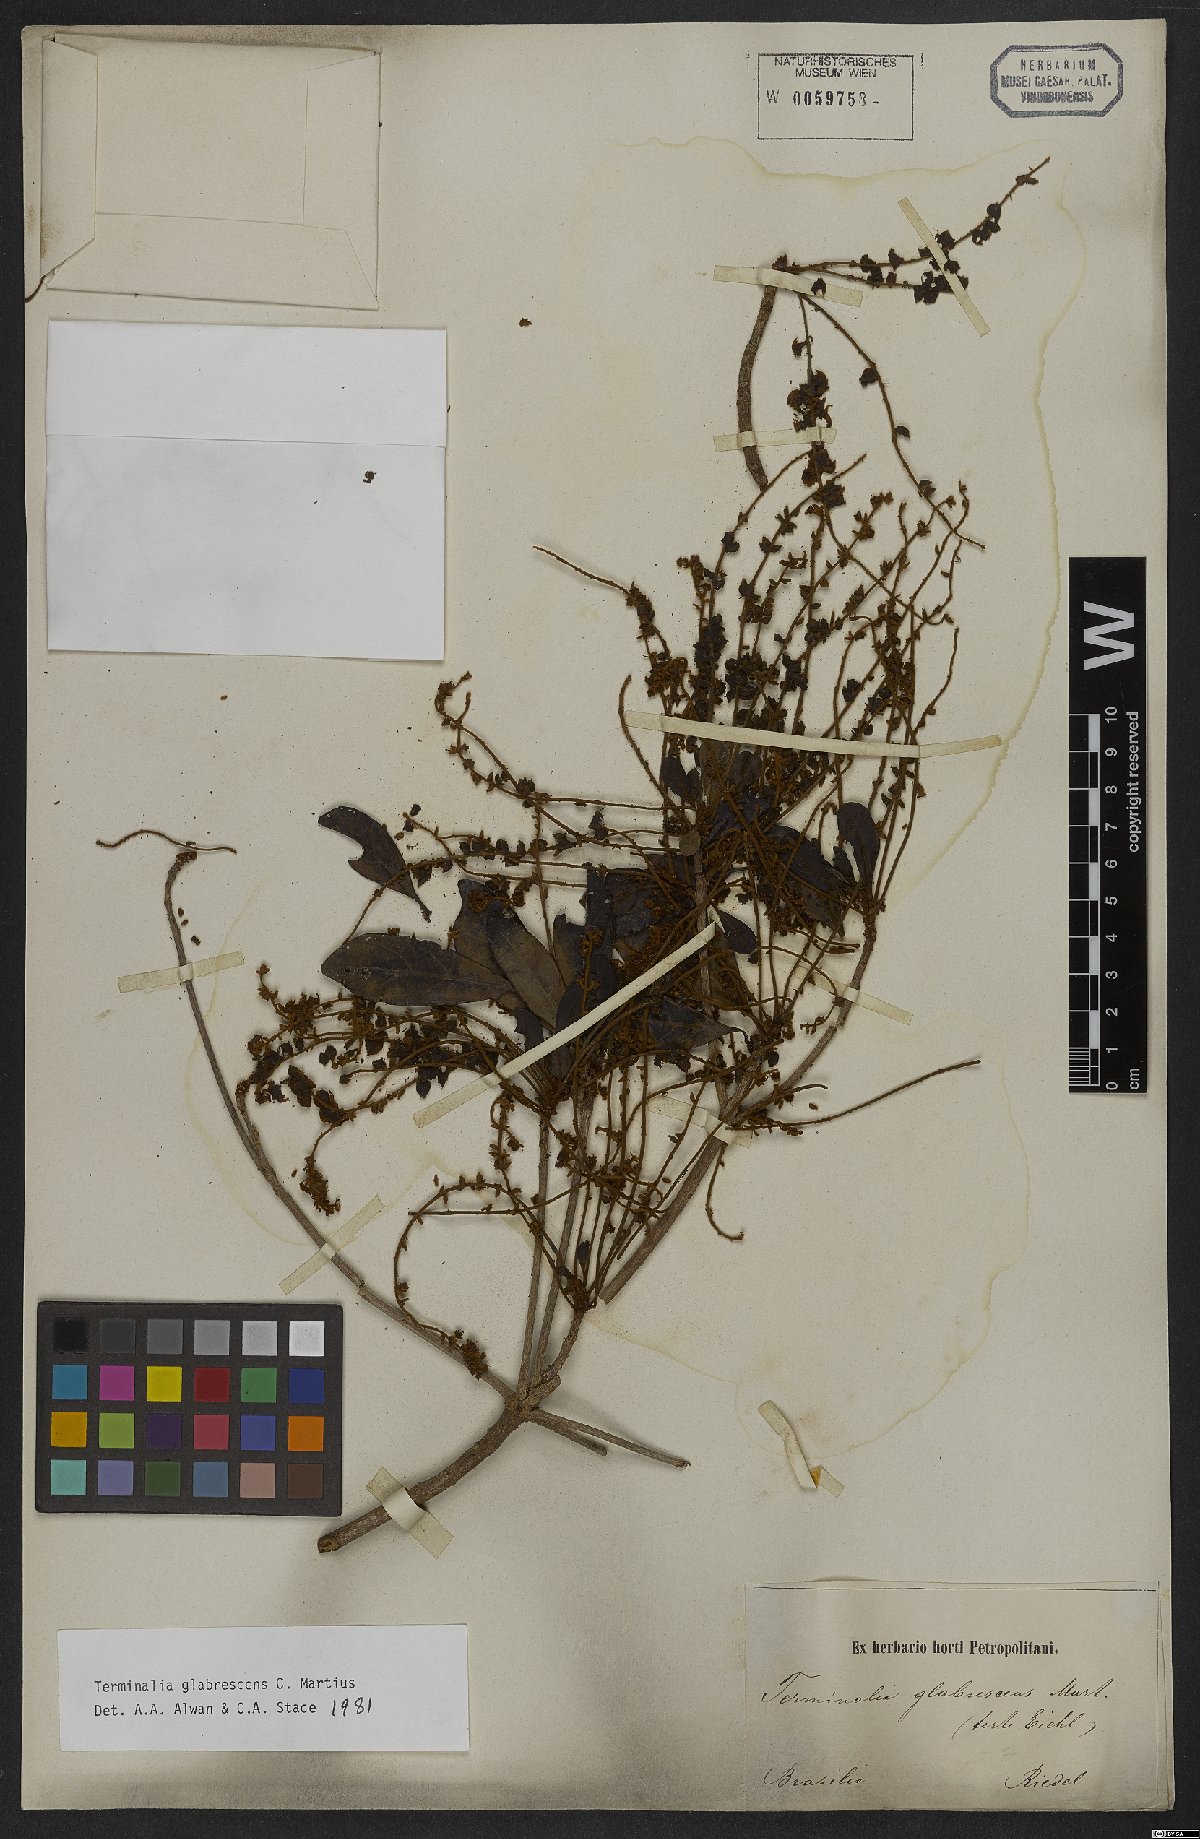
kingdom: Plantae
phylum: Tracheophyta
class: Magnoliopsida
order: Myrtales
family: Combretaceae
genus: Terminalia
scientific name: Terminalia glabrescens
